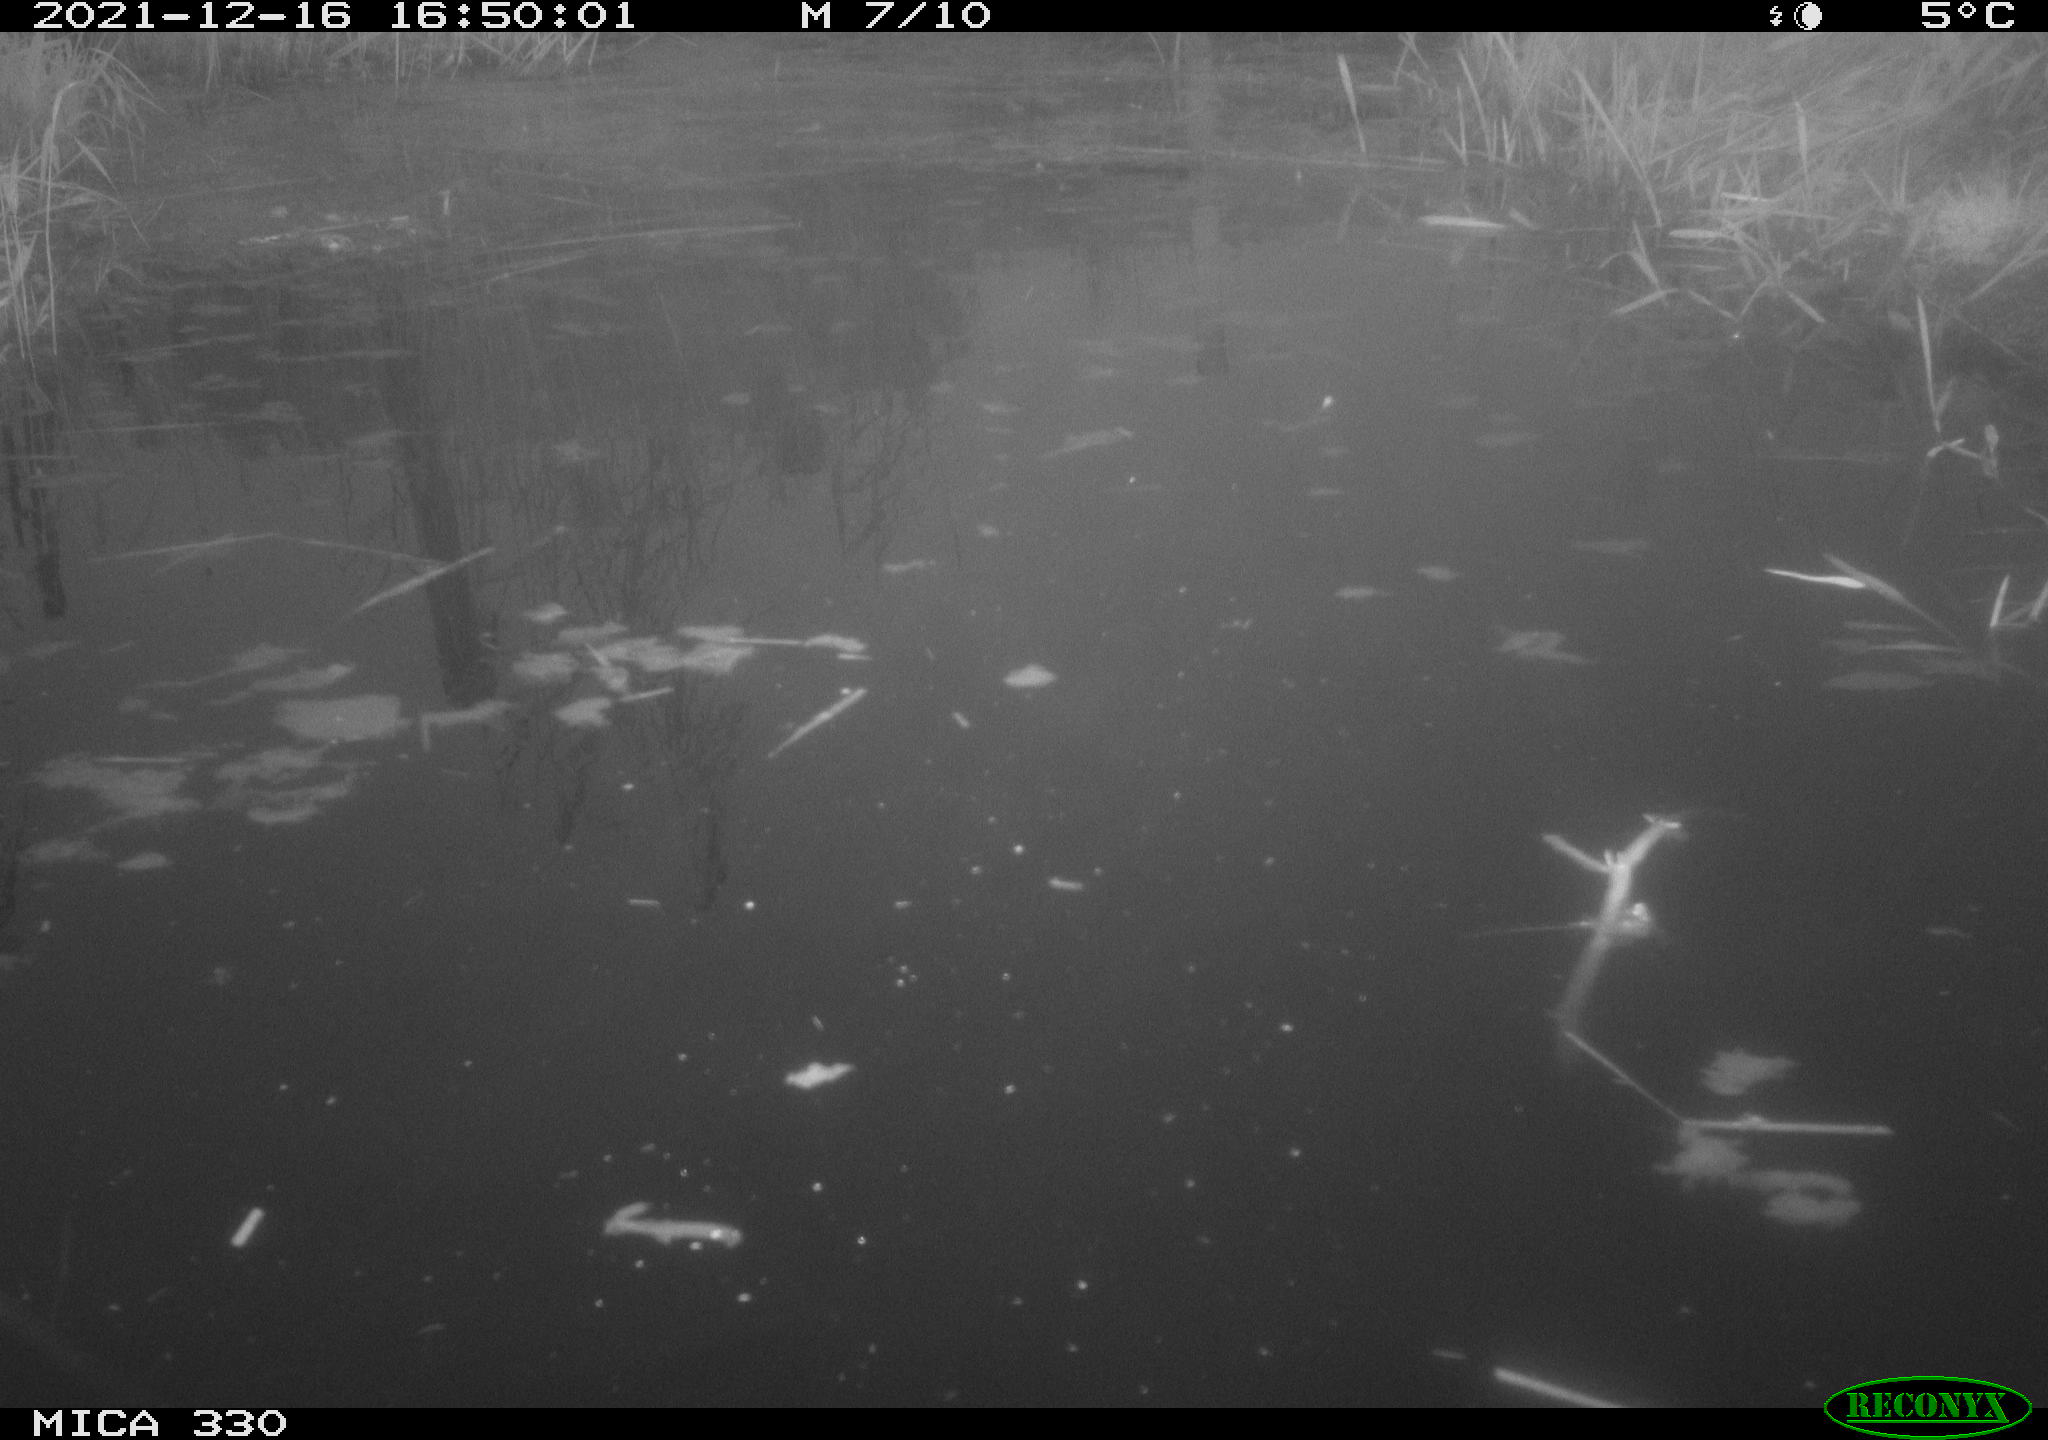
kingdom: Animalia
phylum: Chordata
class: Aves
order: Gruiformes
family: Rallidae
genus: Gallinula
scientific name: Gallinula chloropus
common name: Common moorhen
